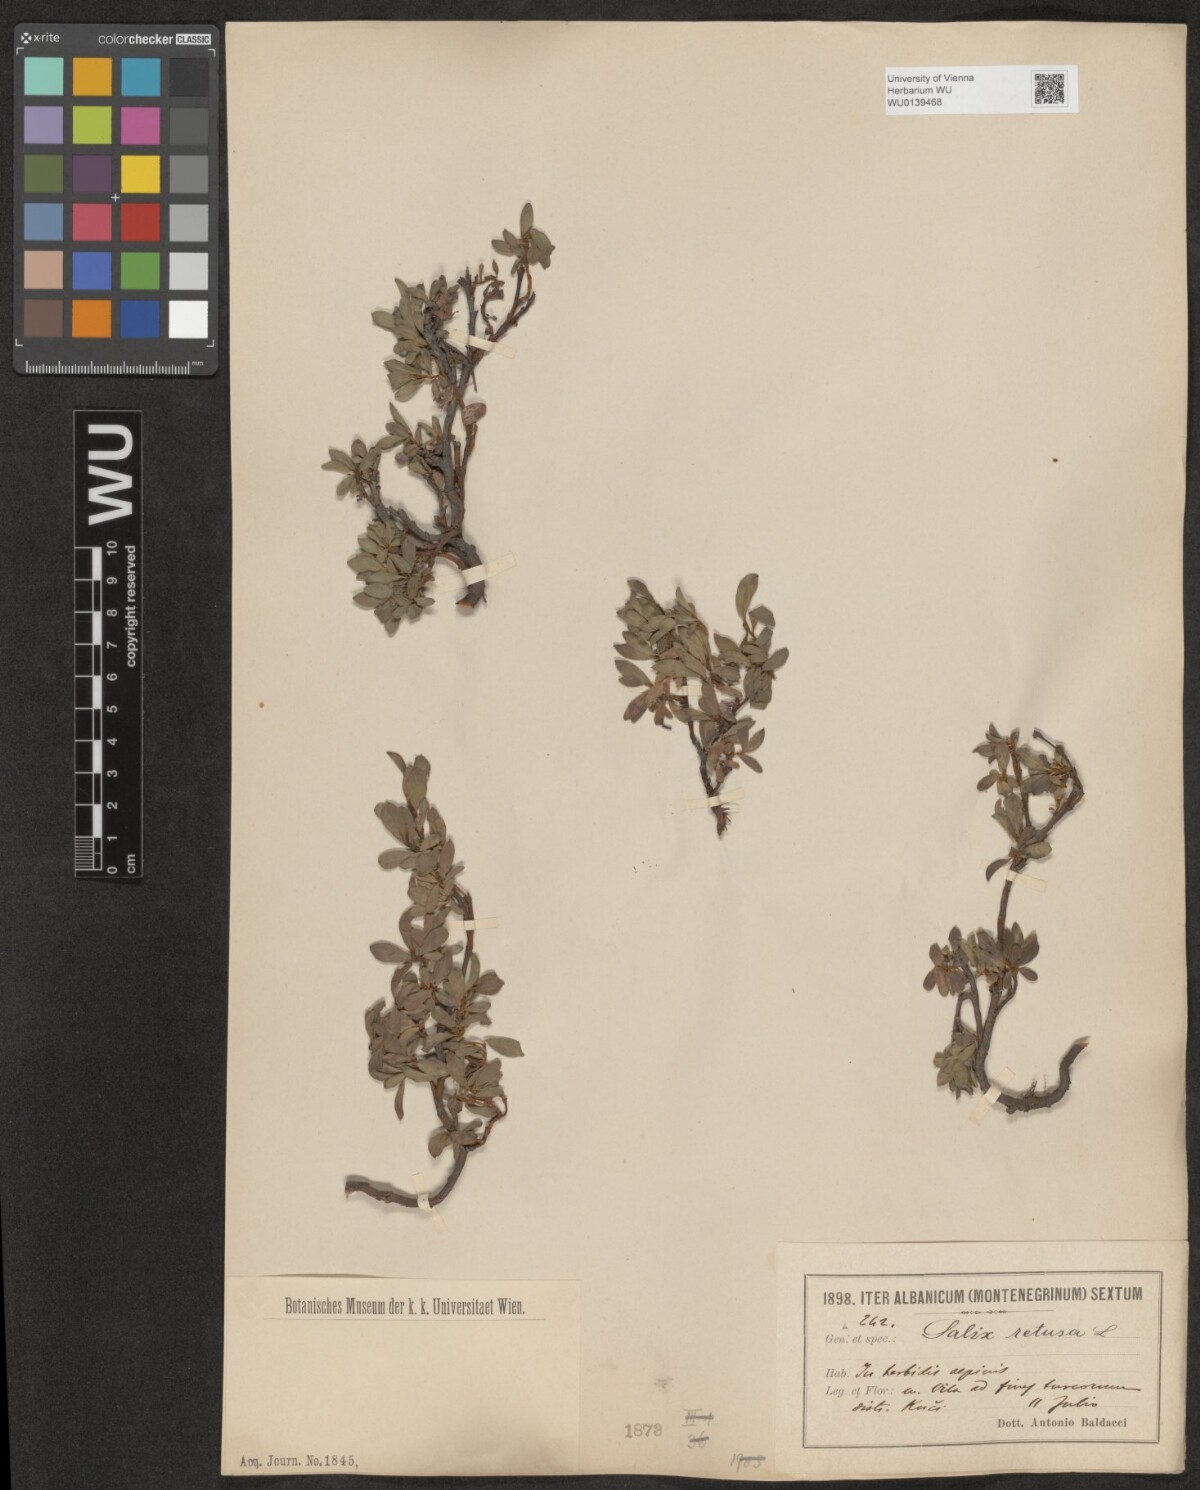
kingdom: Plantae
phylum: Tracheophyta
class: Magnoliopsida
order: Malpighiales
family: Salicaceae
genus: Salix
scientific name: Salix retusa
